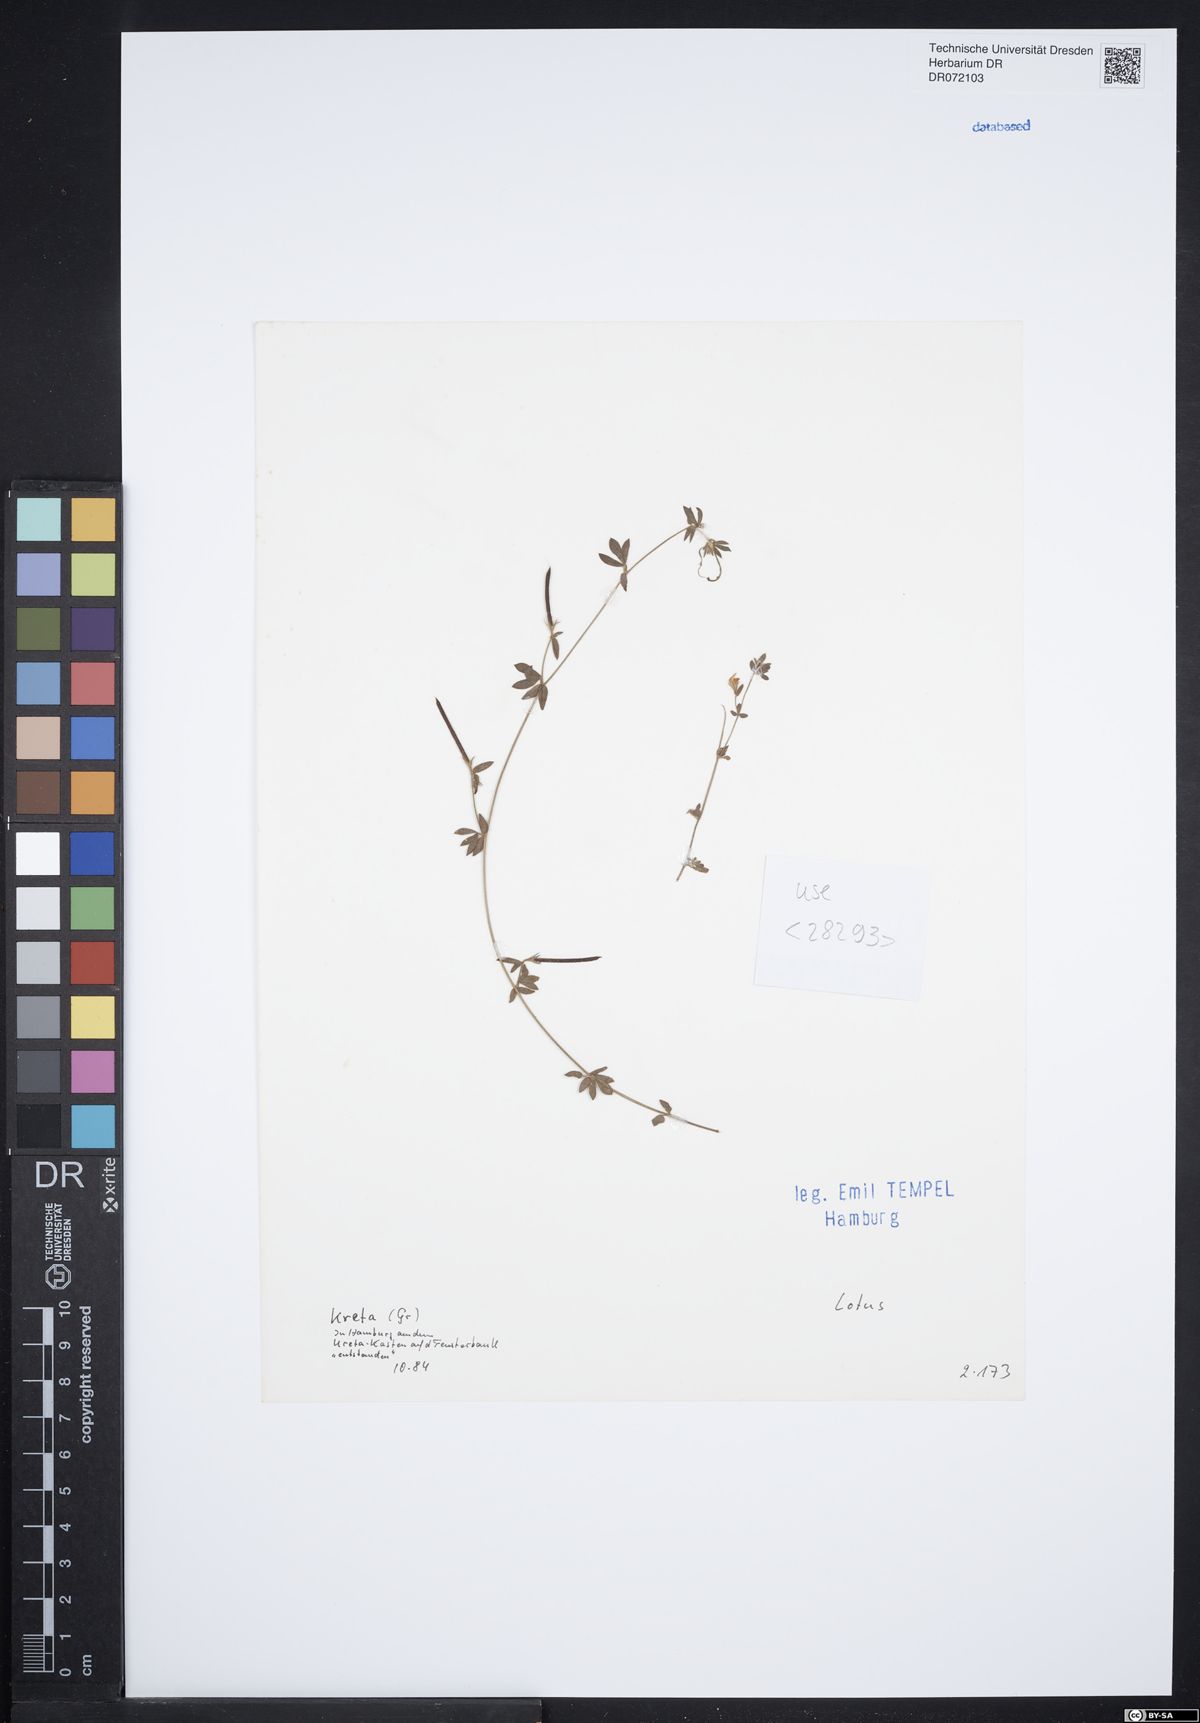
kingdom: Plantae
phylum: Tracheophyta
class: Magnoliopsida
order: Fabales
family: Fabaceae
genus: Lotus
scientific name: Lotus
